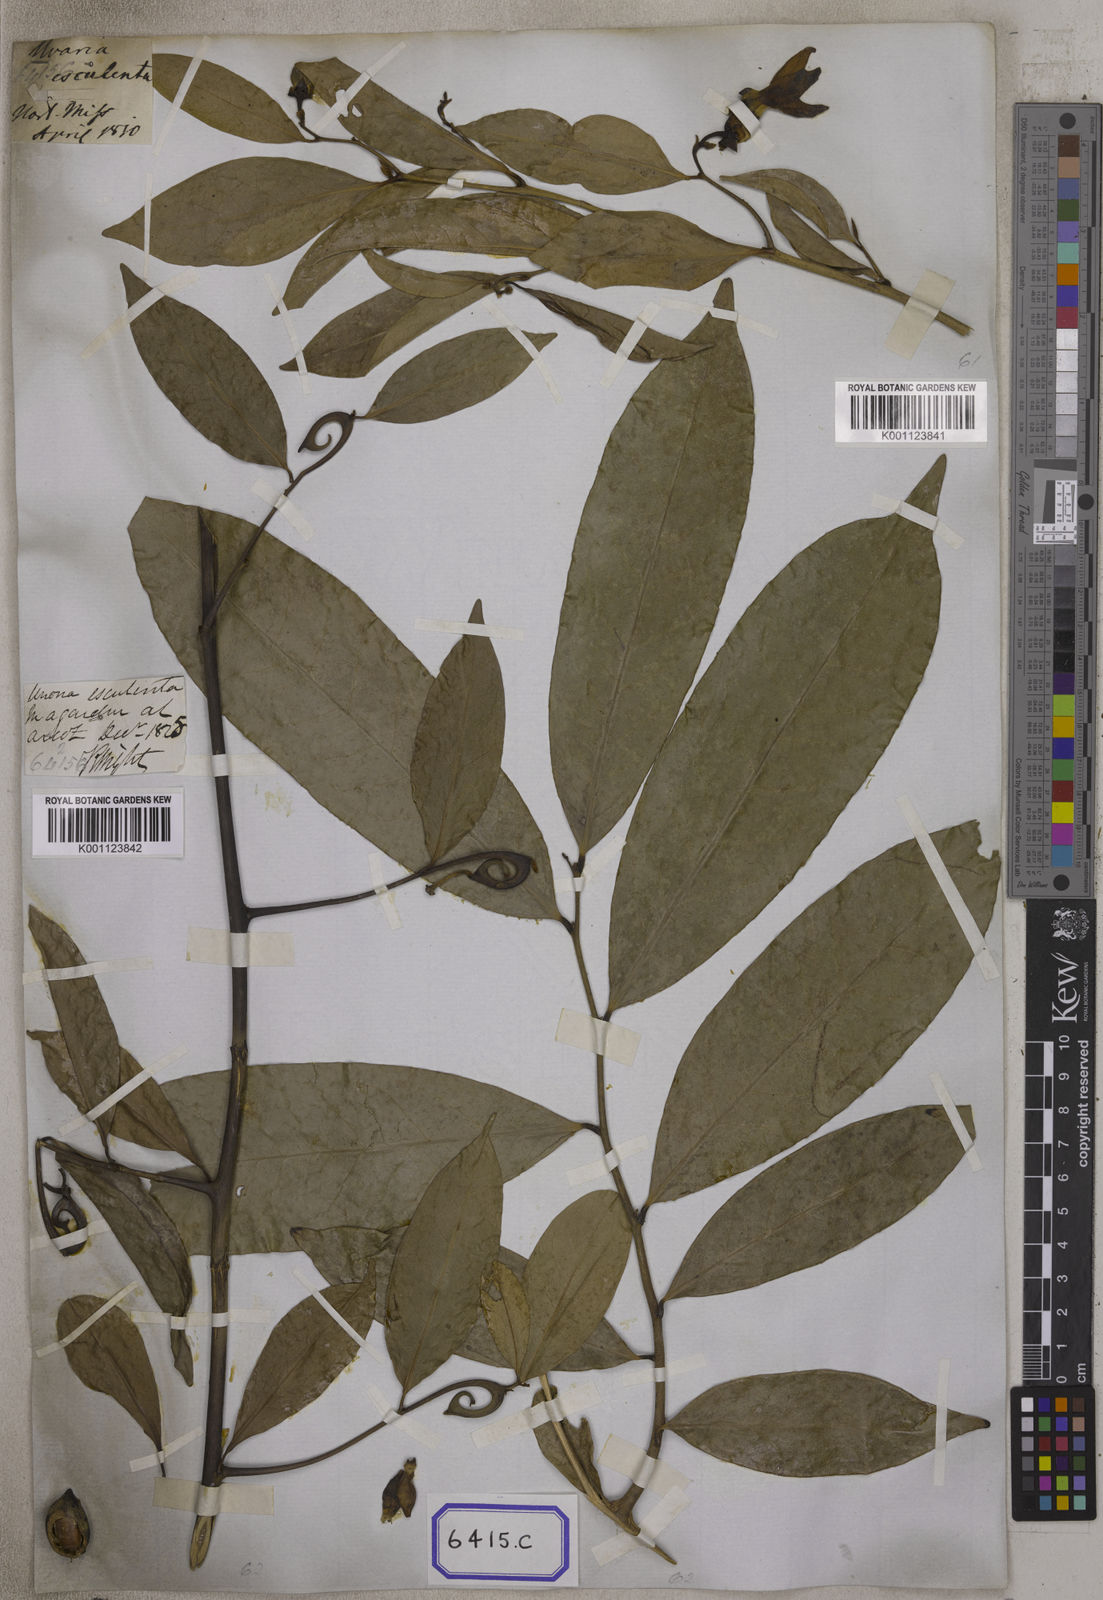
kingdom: Plantae
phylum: Tracheophyta
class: Magnoliopsida
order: Magnoliales
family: Annonaceae
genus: Artabotrys
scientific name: Artabotrys hexapetalus
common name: Climbing ilang-ilang
